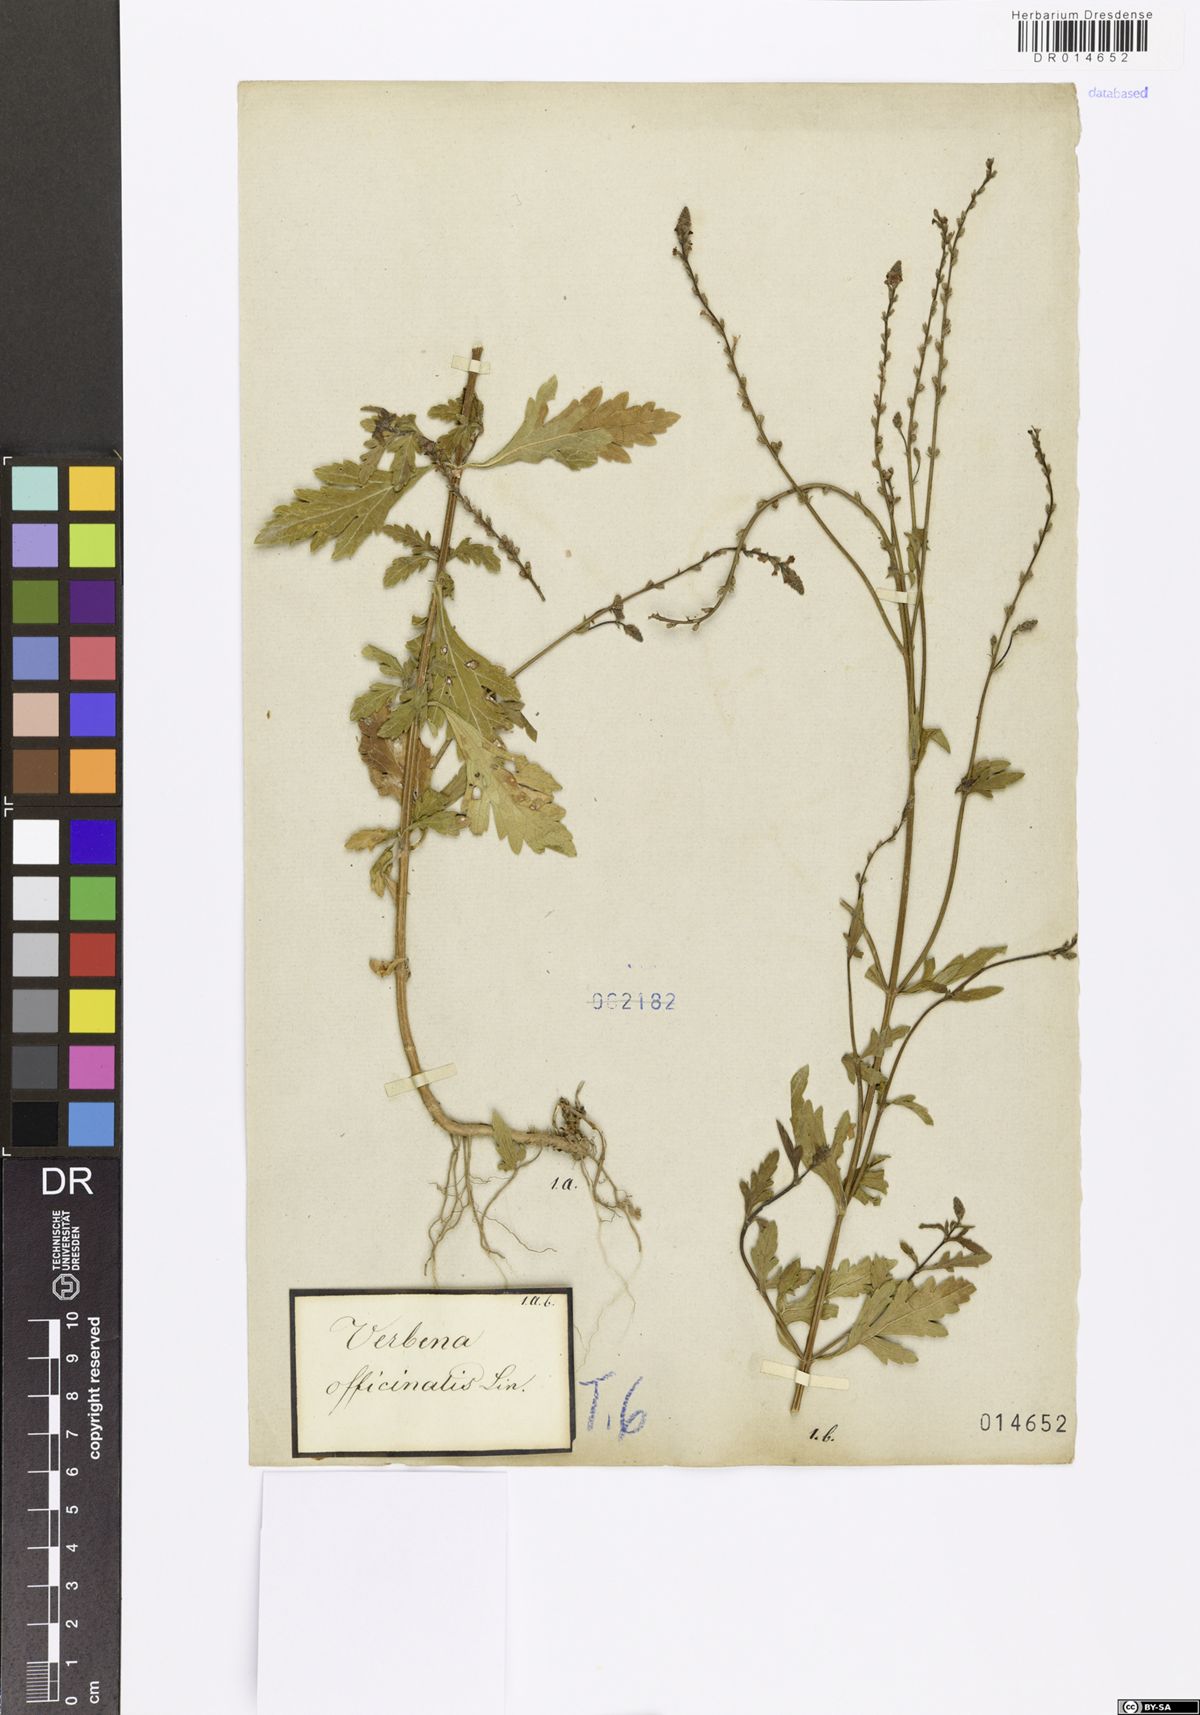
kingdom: Plantae
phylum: Tracheophyta
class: Magnoliopsida
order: Lamiales
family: Verbenaceae
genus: Verbena
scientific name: Verbena officinalis
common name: Vervain
